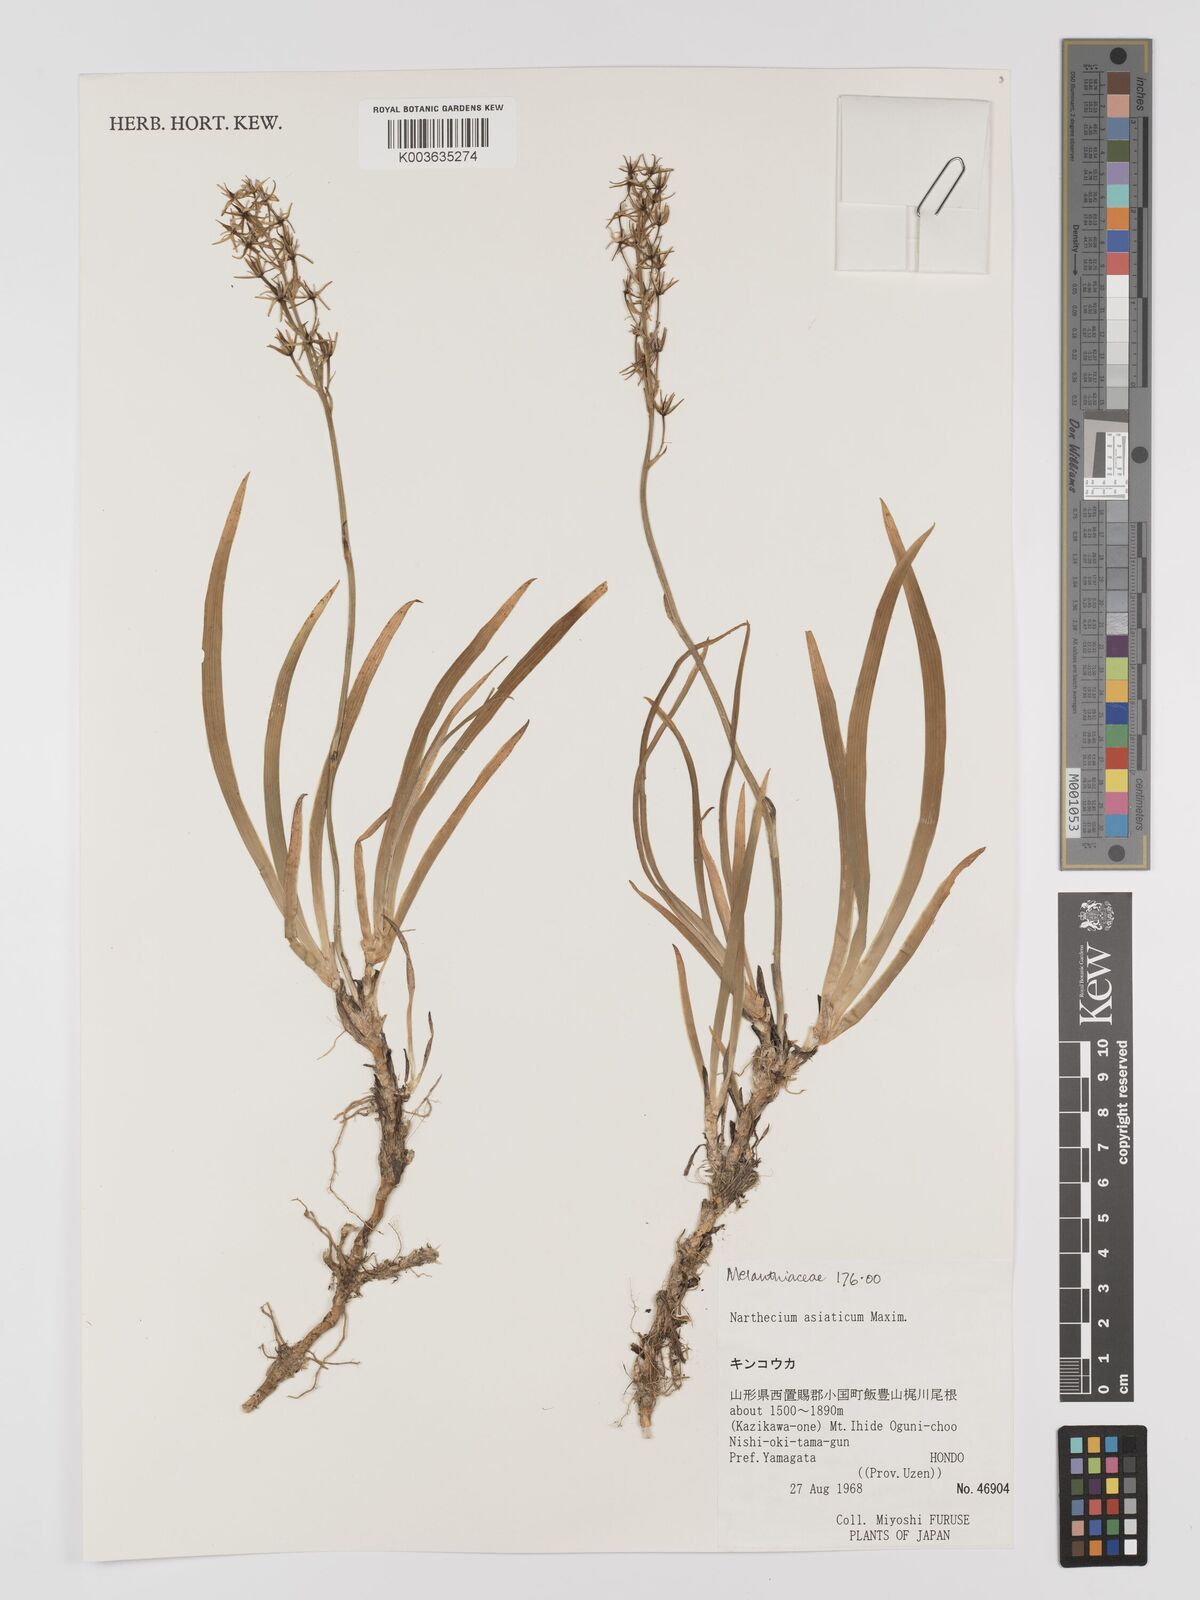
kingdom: Plantae
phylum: Tracheophyta
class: Liliopsida
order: Dioscoreales
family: Nartheciaceae
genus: Narthecium
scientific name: Narthecium asiaticum
